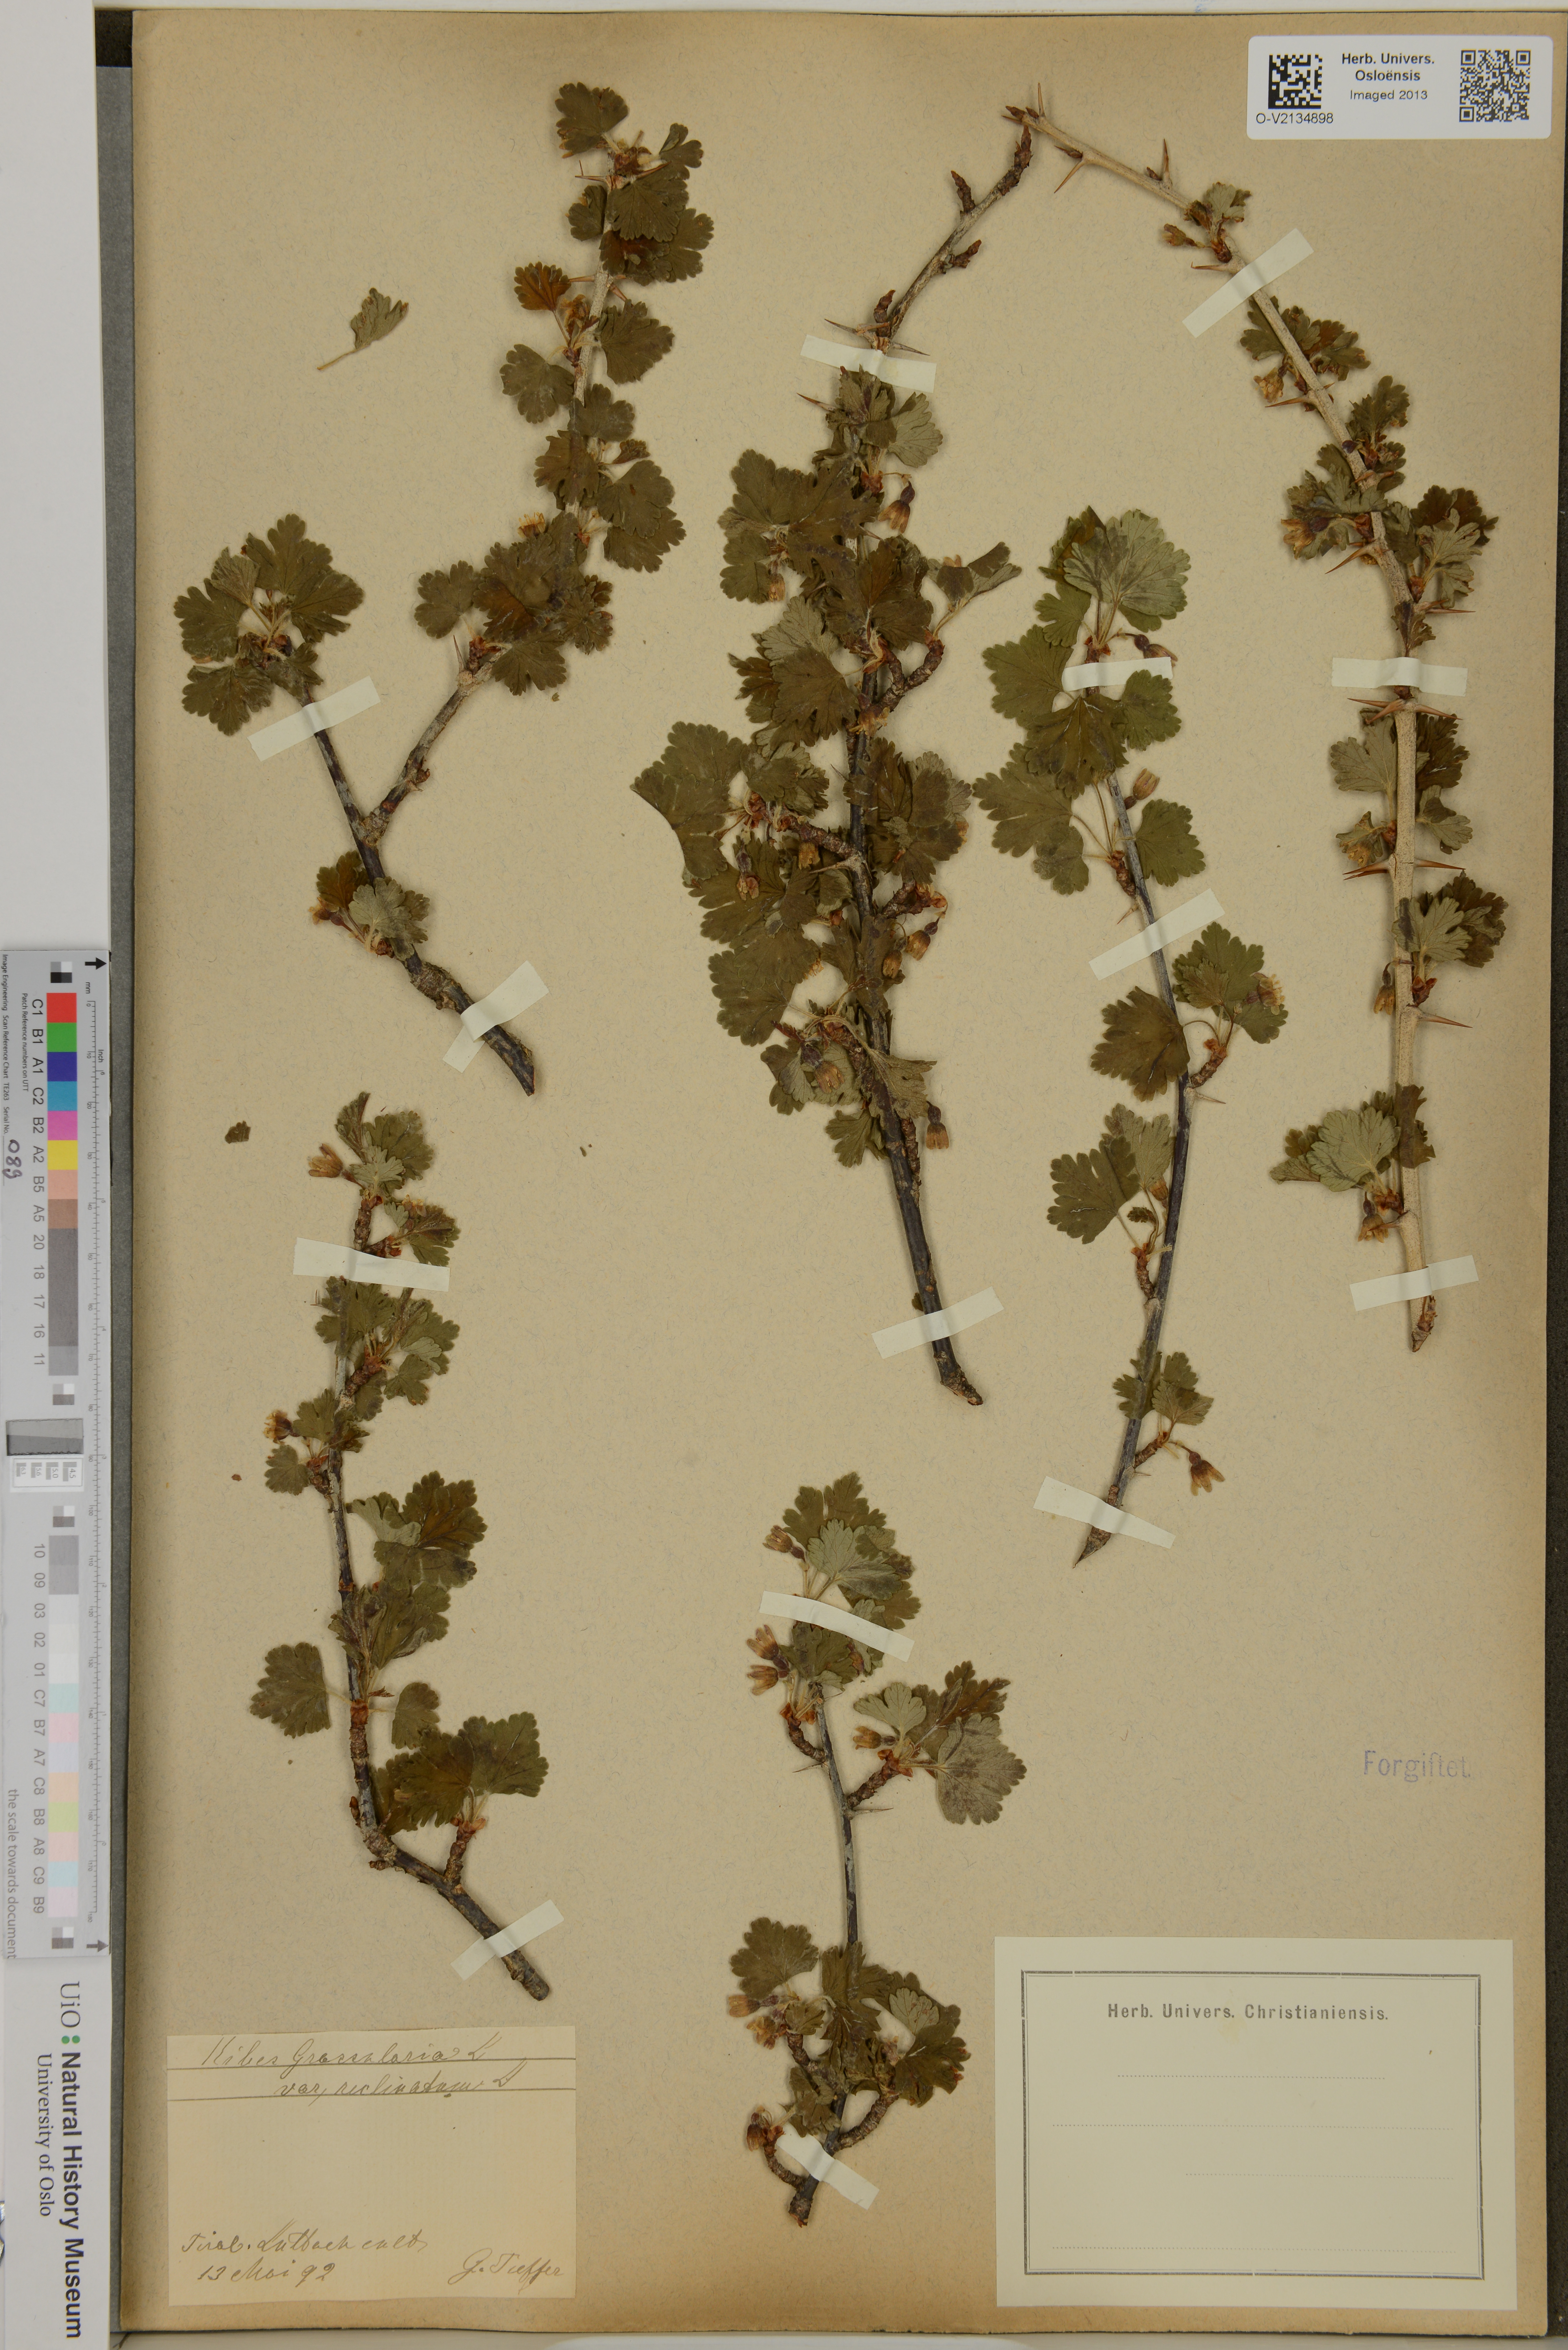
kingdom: Plantae
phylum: Tracheophyta
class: Magnoliopsida
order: Saxifragales
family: Grossulariaceae
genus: Ribes
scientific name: Ribes uva-crispa
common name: Gooseberry
